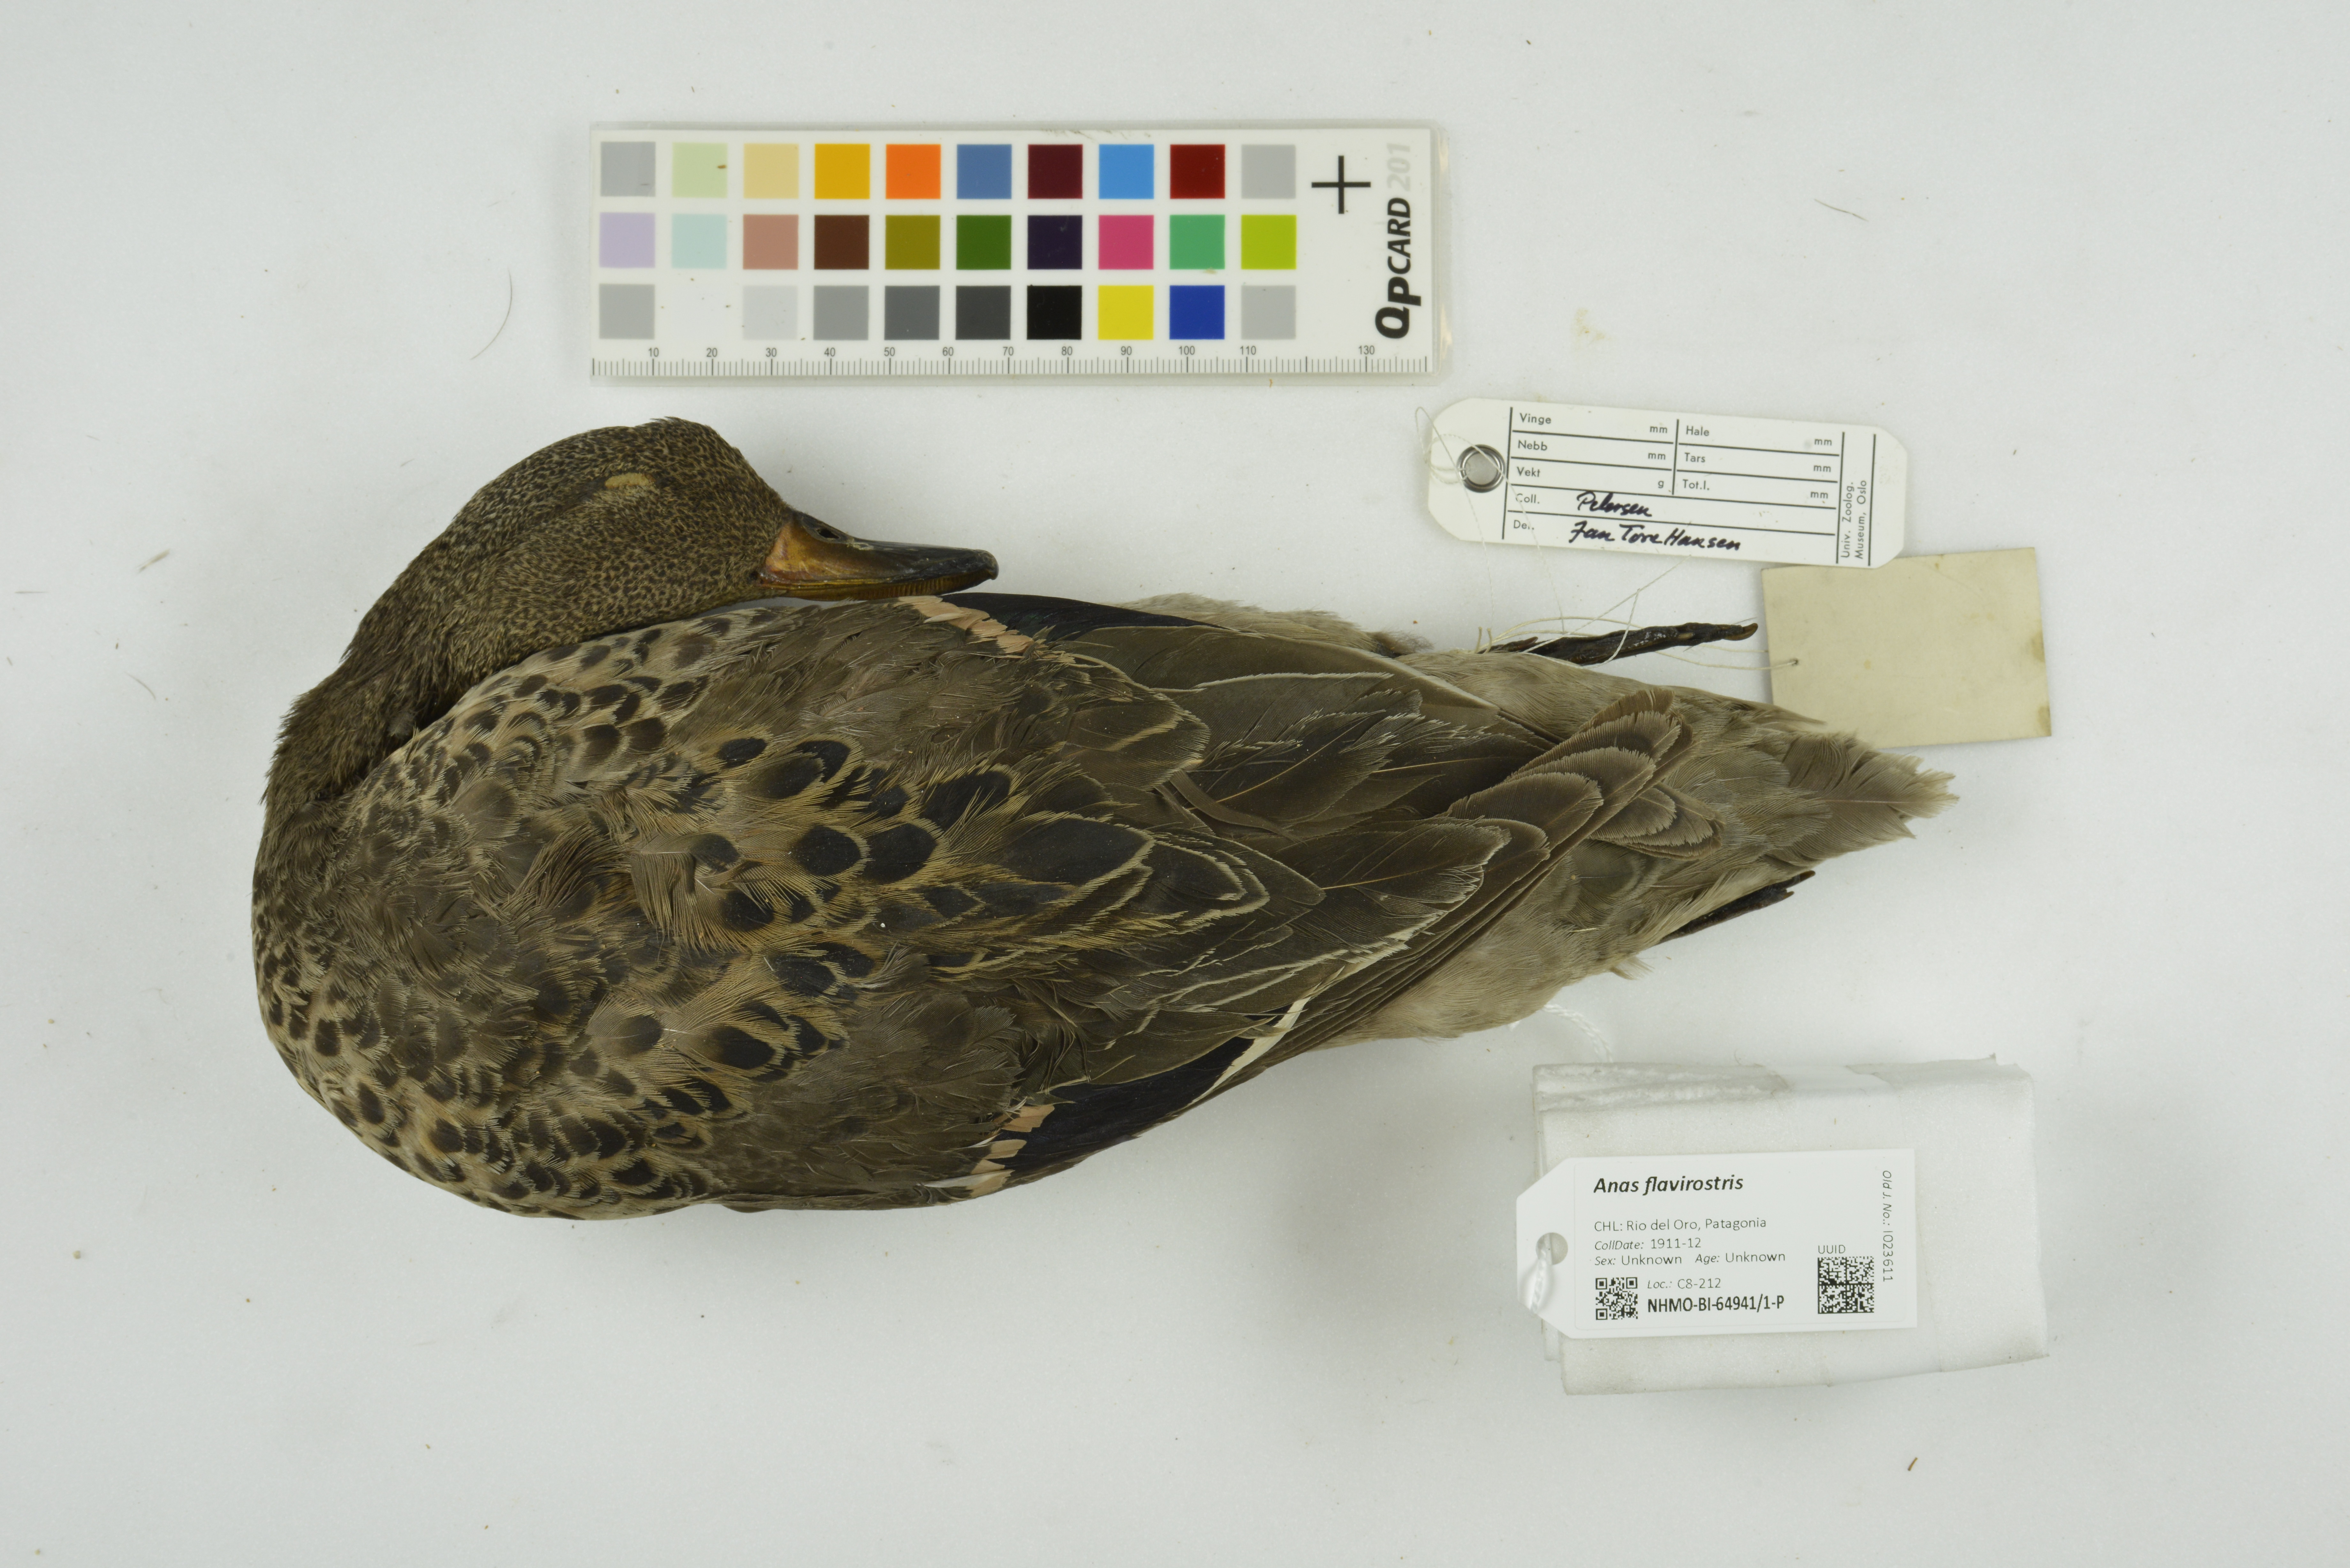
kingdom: Animalia
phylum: Chordata
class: Aves
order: Anseriformes
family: Anatidae
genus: Anas
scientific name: Anas flavirostris
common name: Yellow-billed teal
